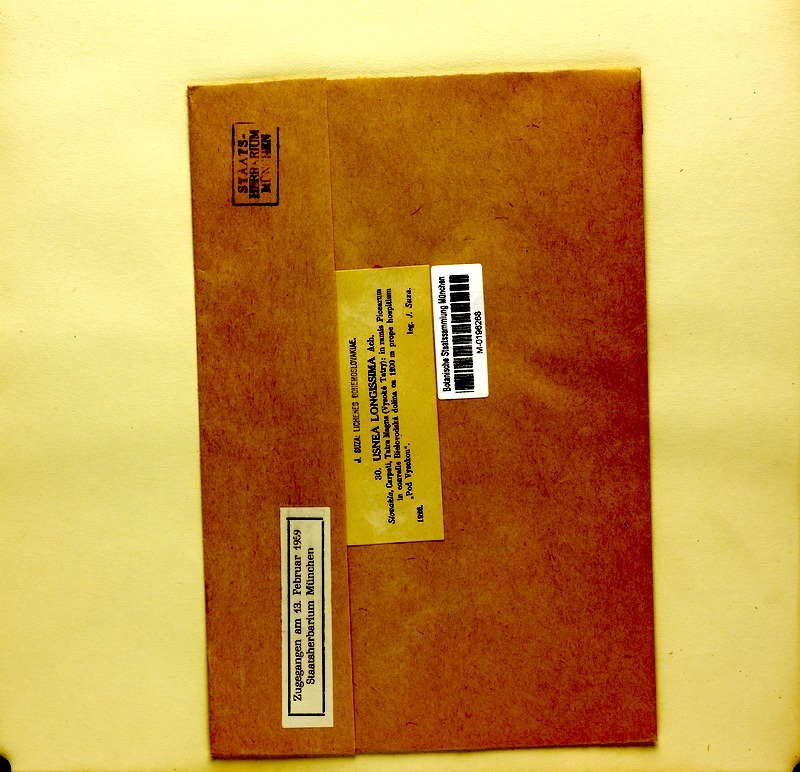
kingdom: Fungi
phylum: Ascomycota
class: Lecanoromycetes
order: Lecanorales
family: Parmeliaceae
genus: Dolichousnea
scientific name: Dolichousnea longissima
